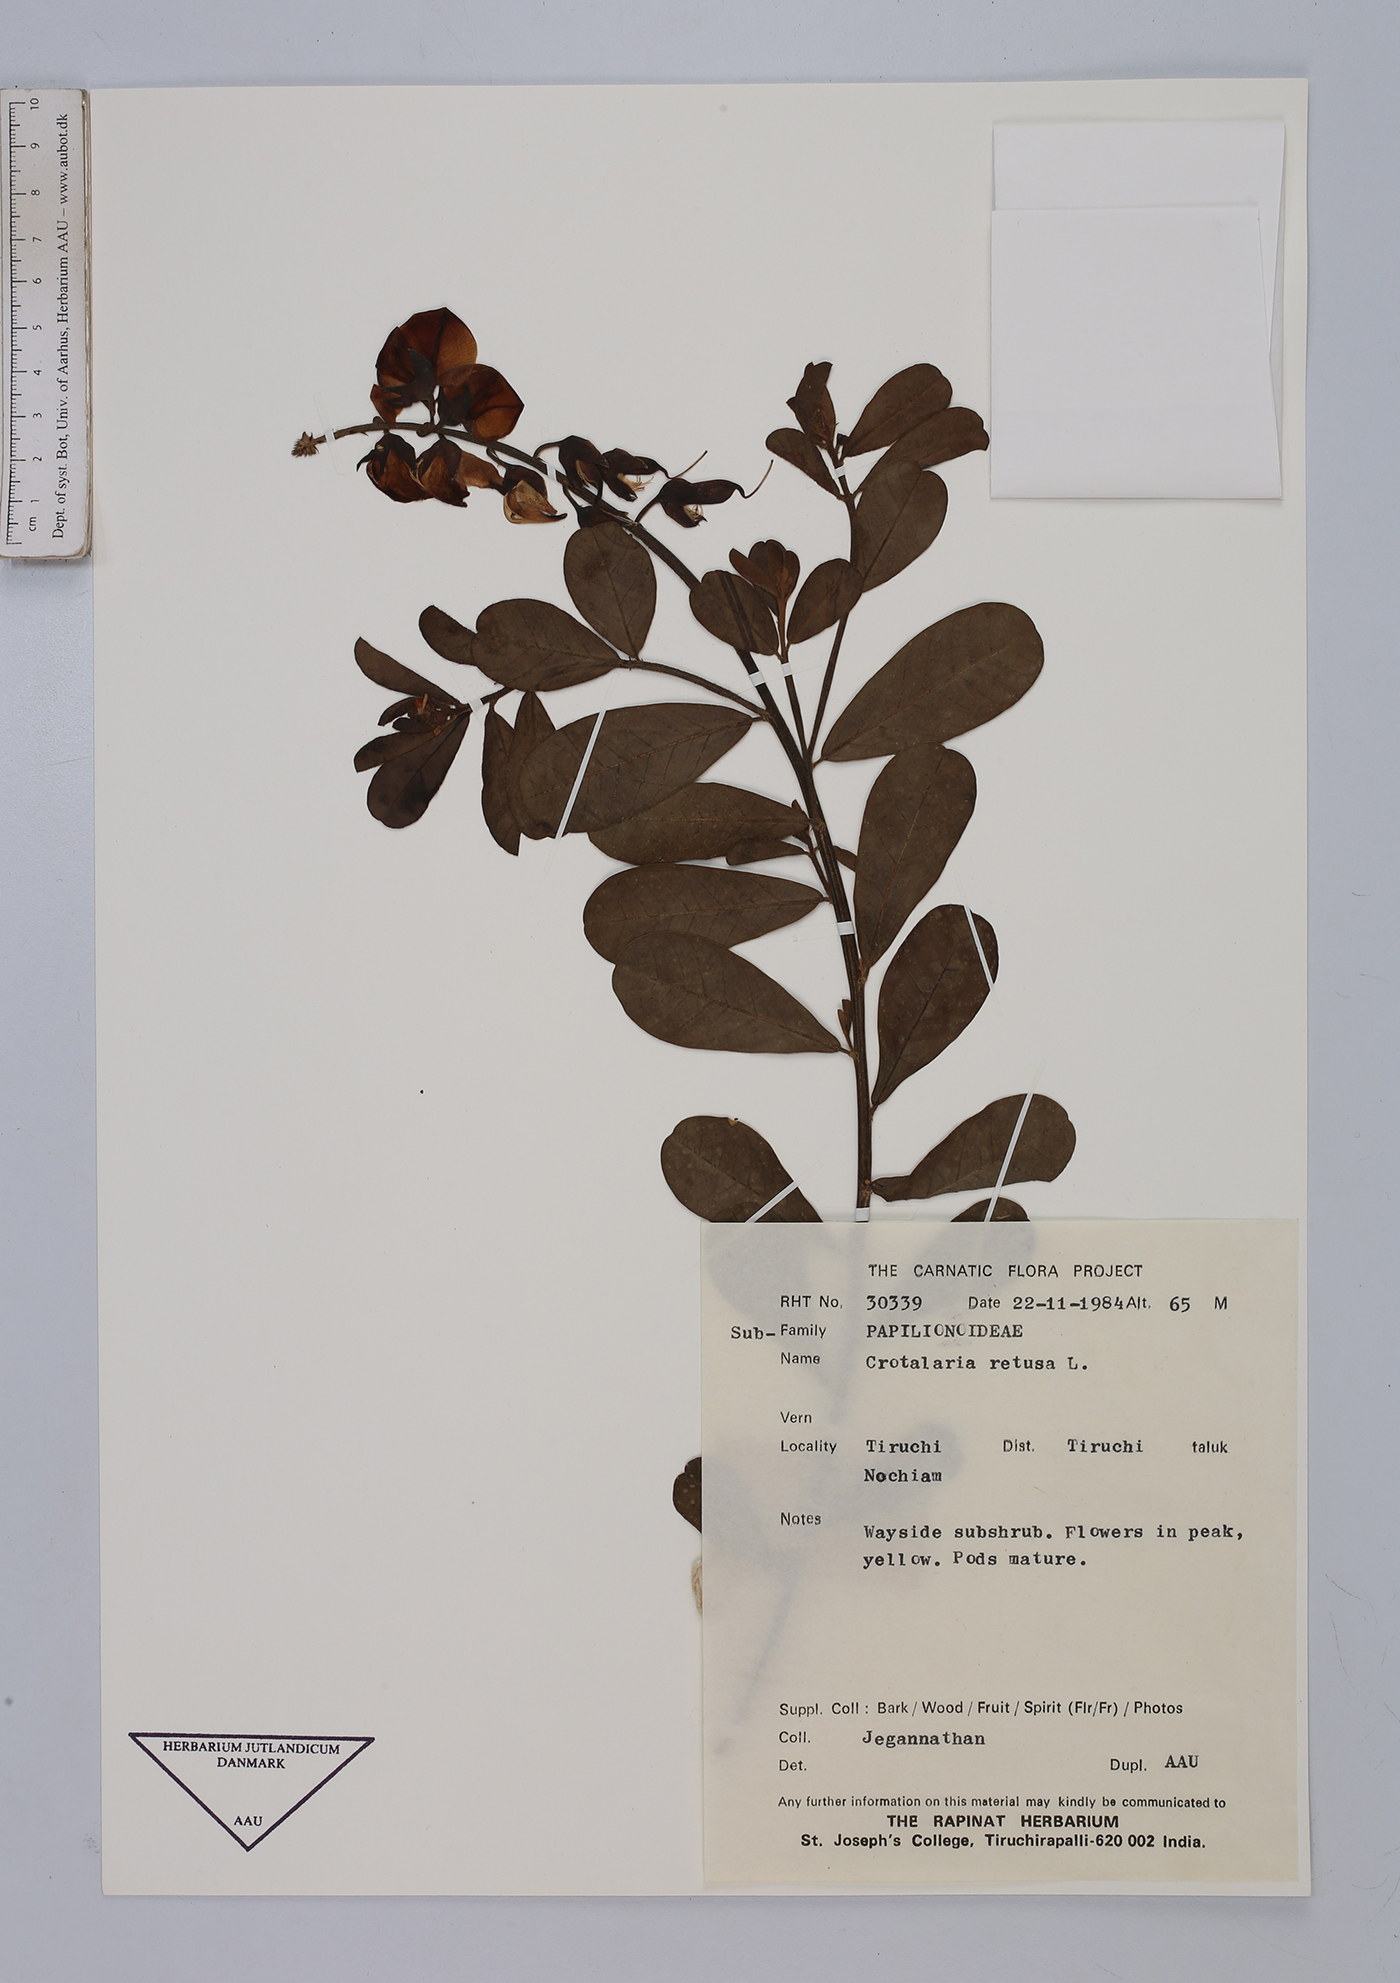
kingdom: Plantae
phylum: Tracheophyta
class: Magnoliopsida
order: Fabales
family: Fabaceae
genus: Crotalaria
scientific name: Crotalaria retusa
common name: Rattleweed
